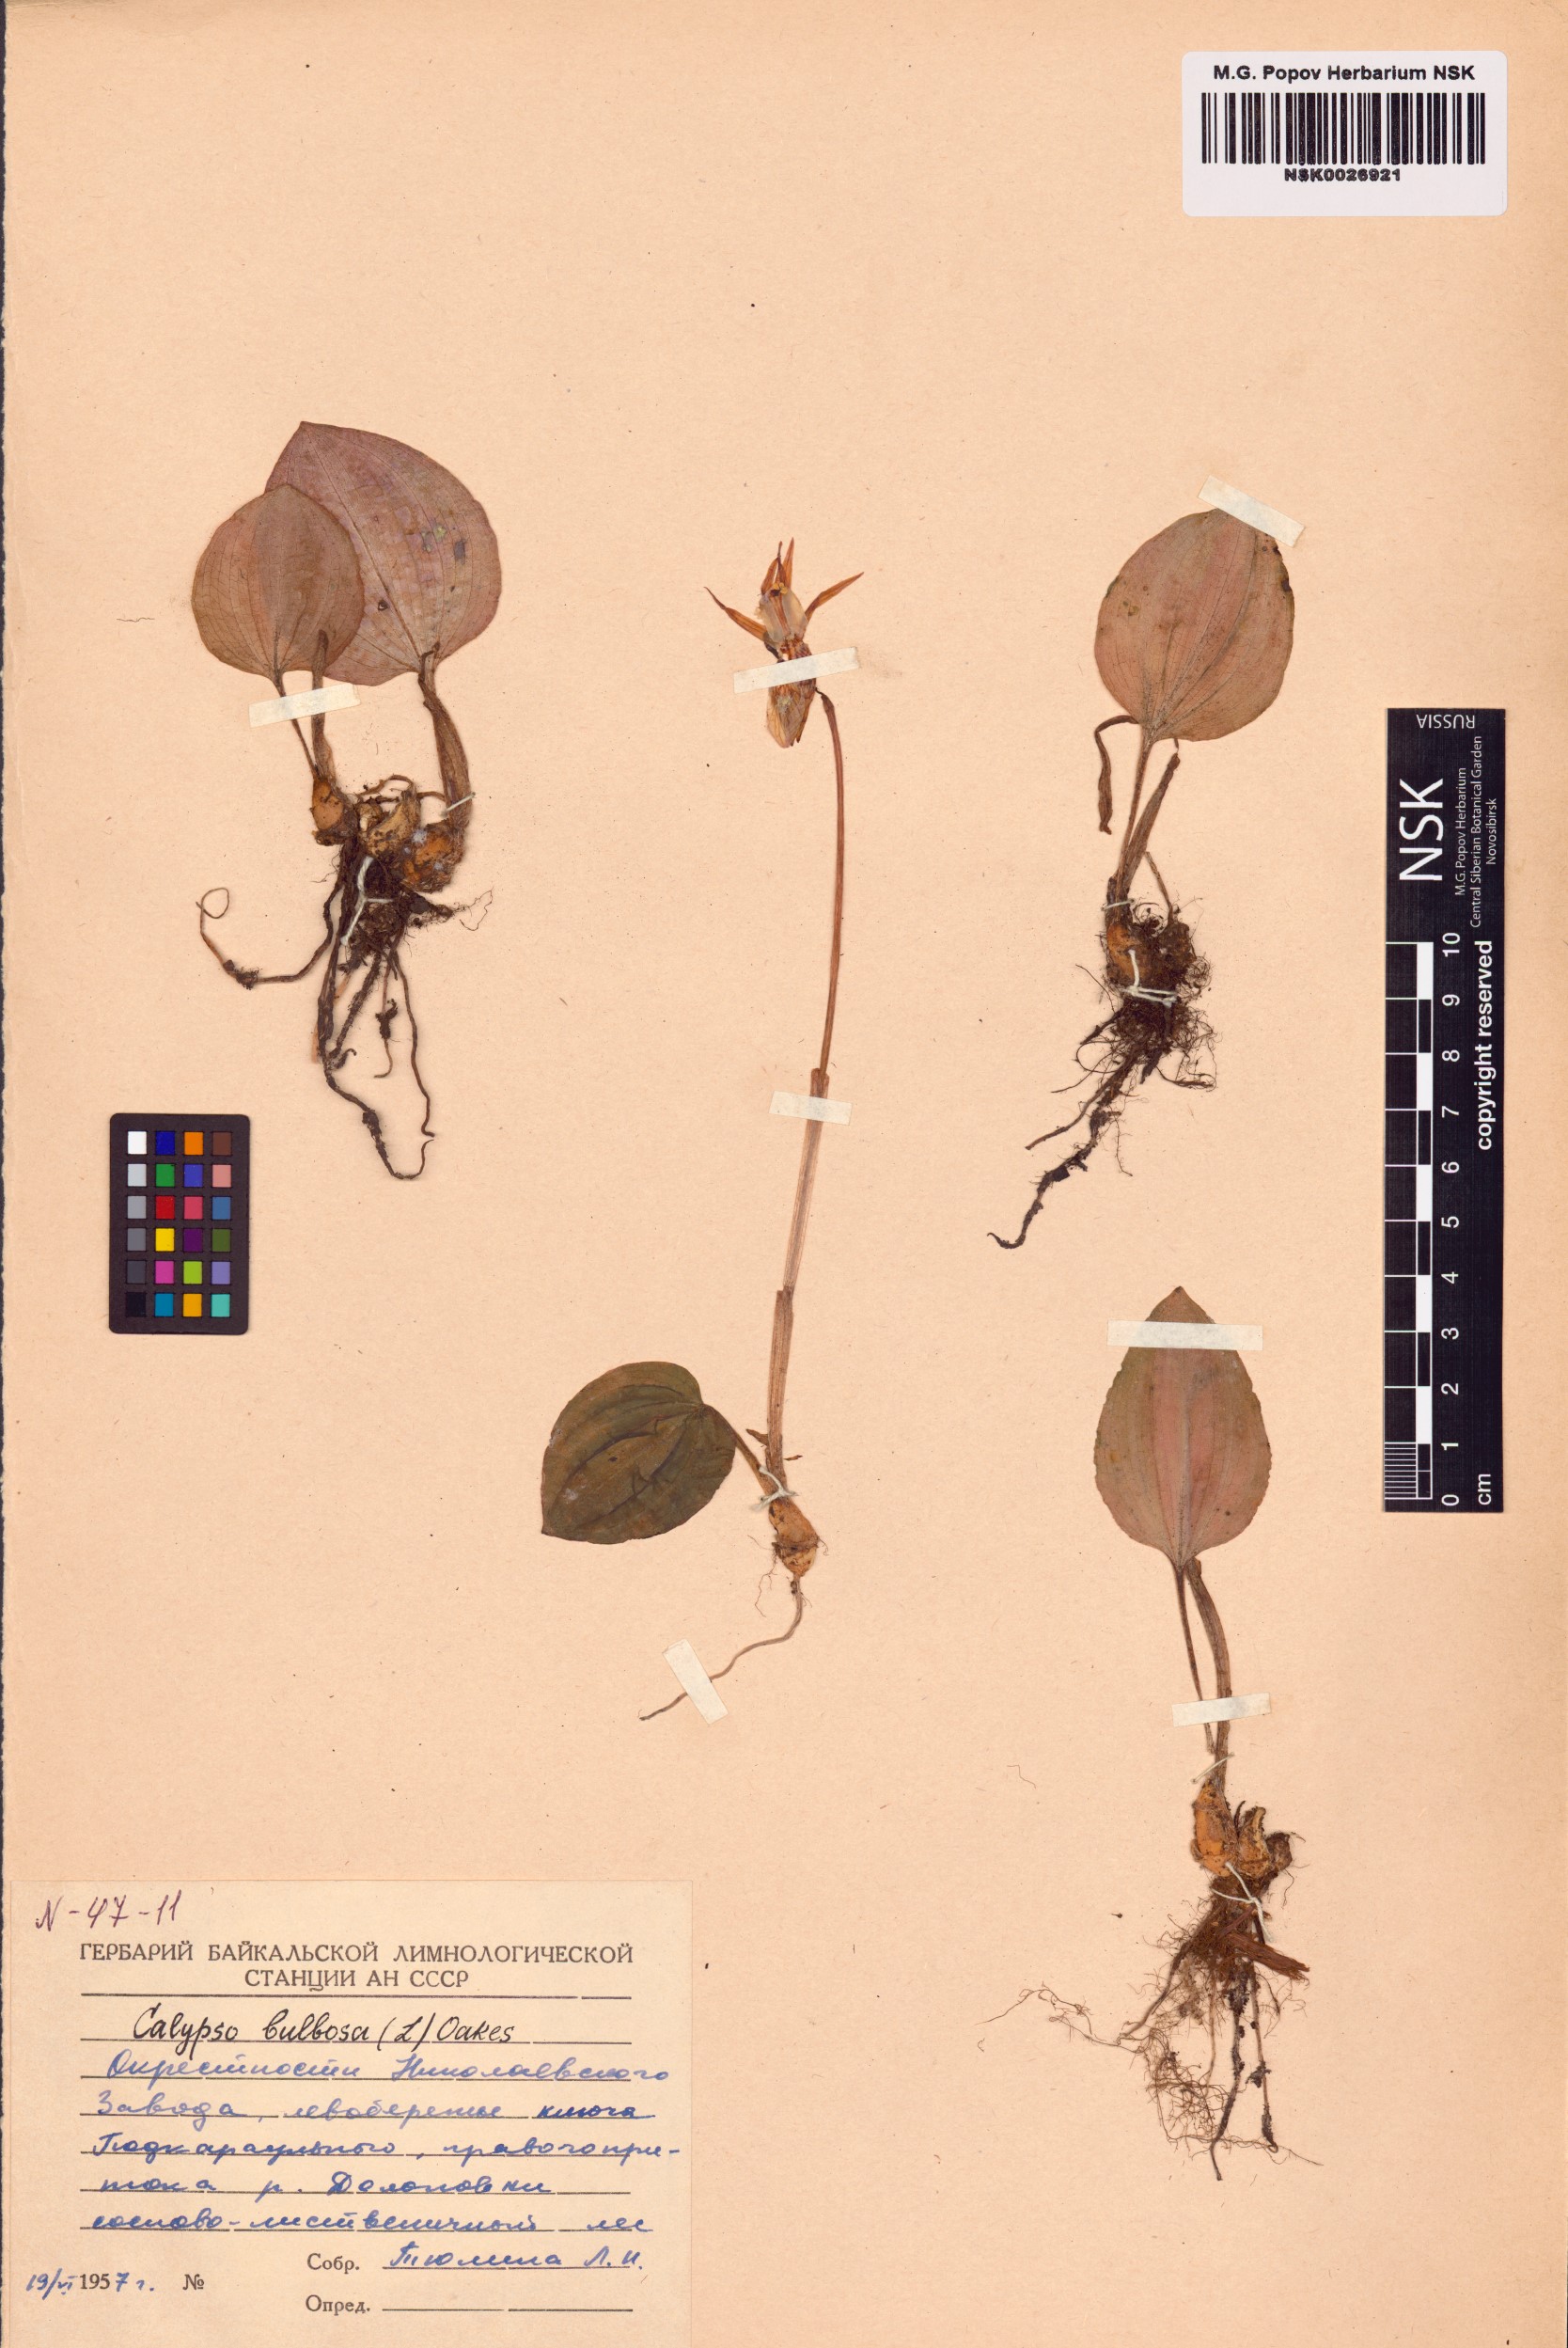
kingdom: Plantae
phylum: Tracheophyta
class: Liliopsida
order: Asparagales
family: Orchidaceae
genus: Calypso
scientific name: Calypso bulbosa
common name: Calypso
